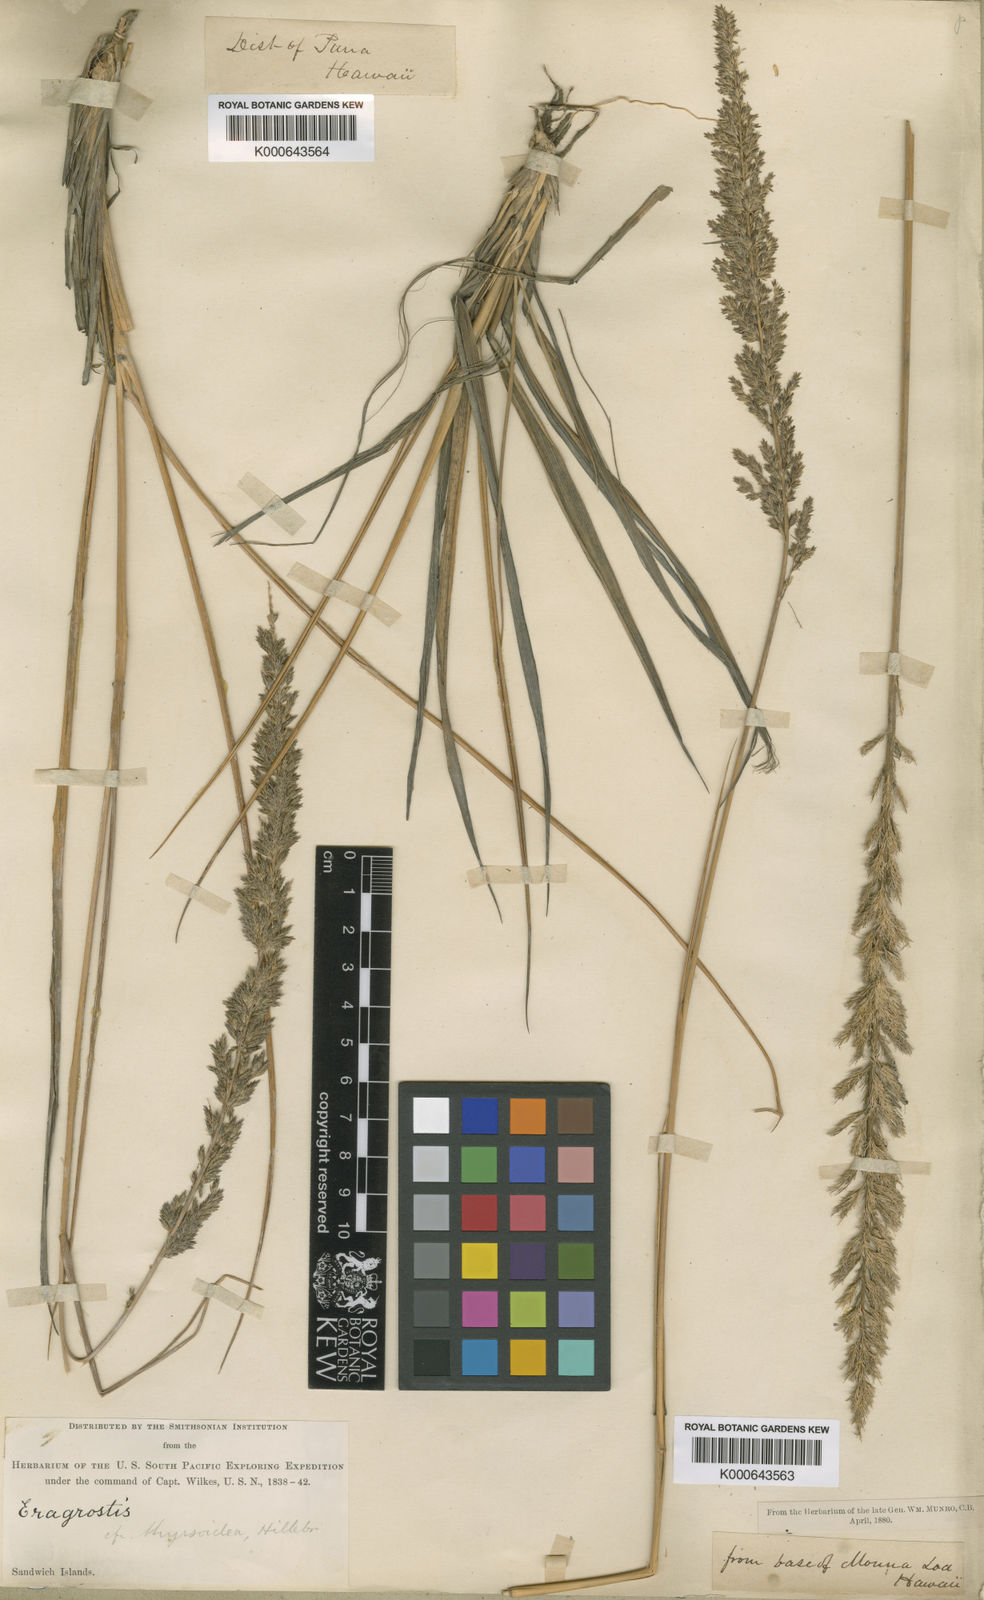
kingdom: Plantae
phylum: Tracheophyta
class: Liliopsida
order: Poales
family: Poaceae
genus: Eragrostis
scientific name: Eragrostis
